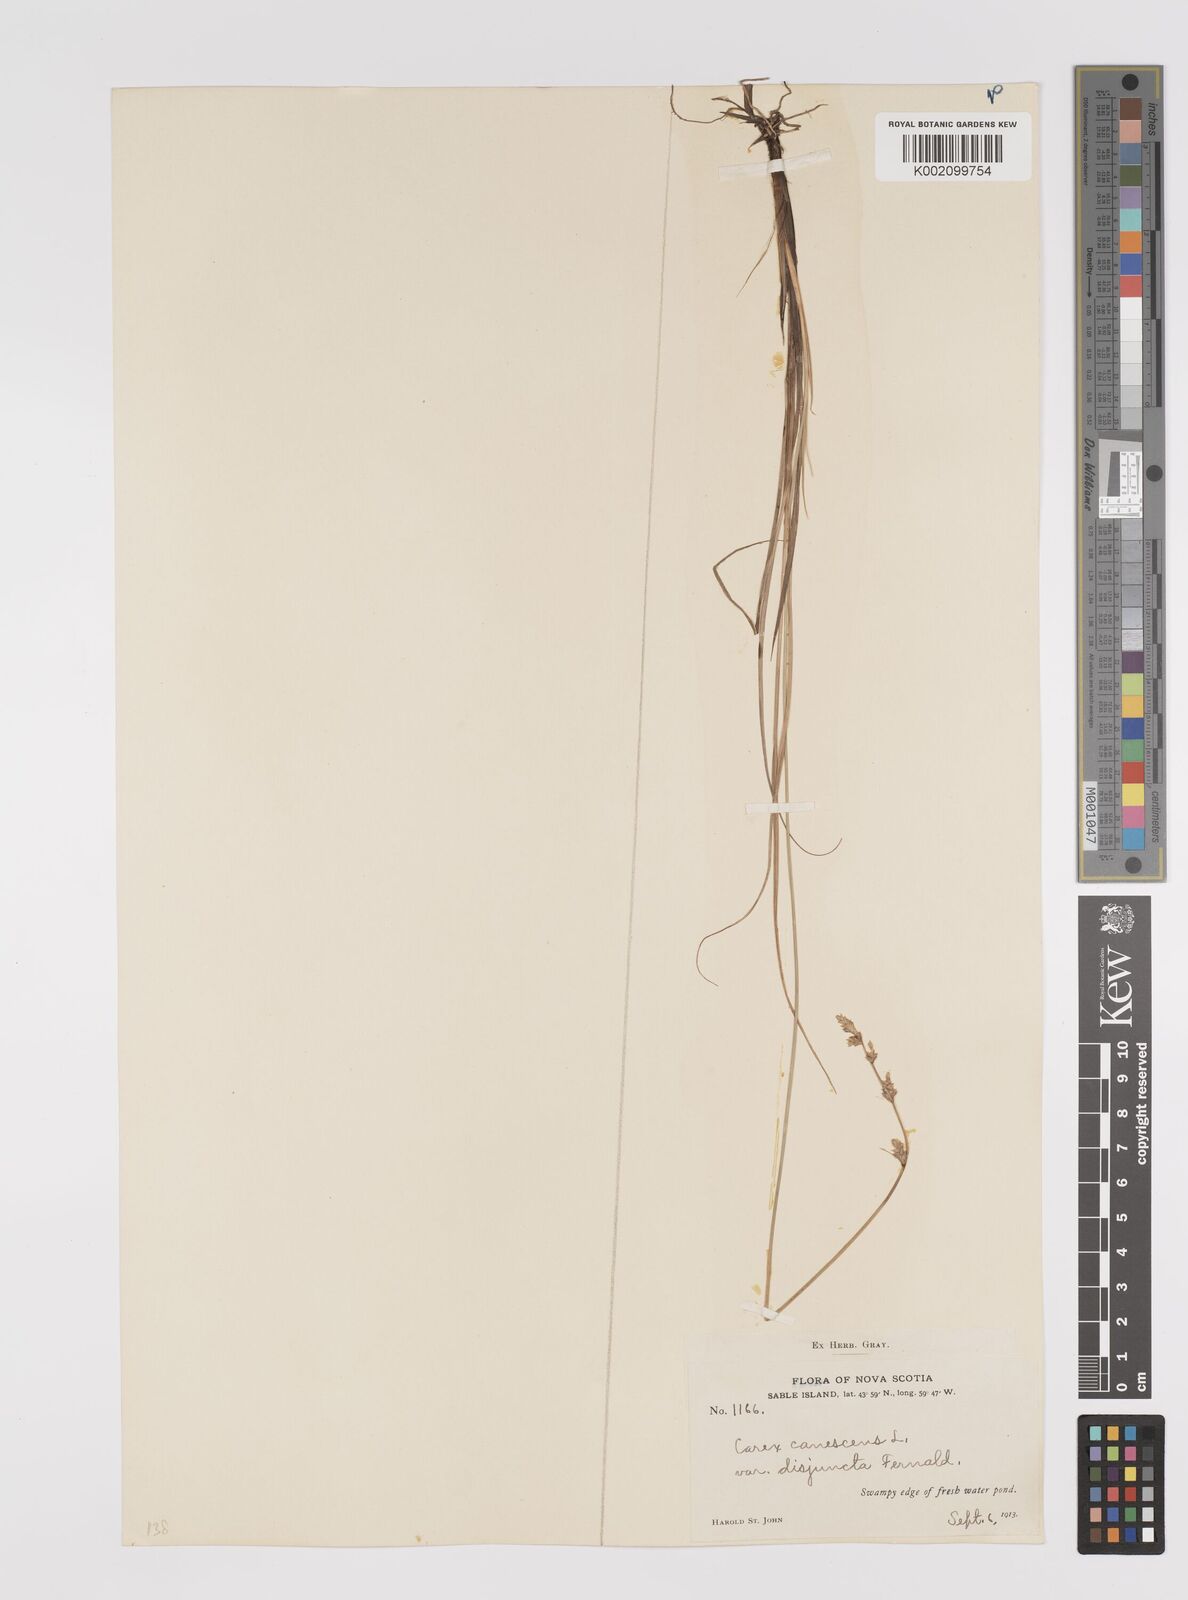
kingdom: Plantae
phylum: Tracheophyta
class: Liliopsida
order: Poales
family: Cyperaceae
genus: Carex
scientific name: Carex curta
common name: White sedge
